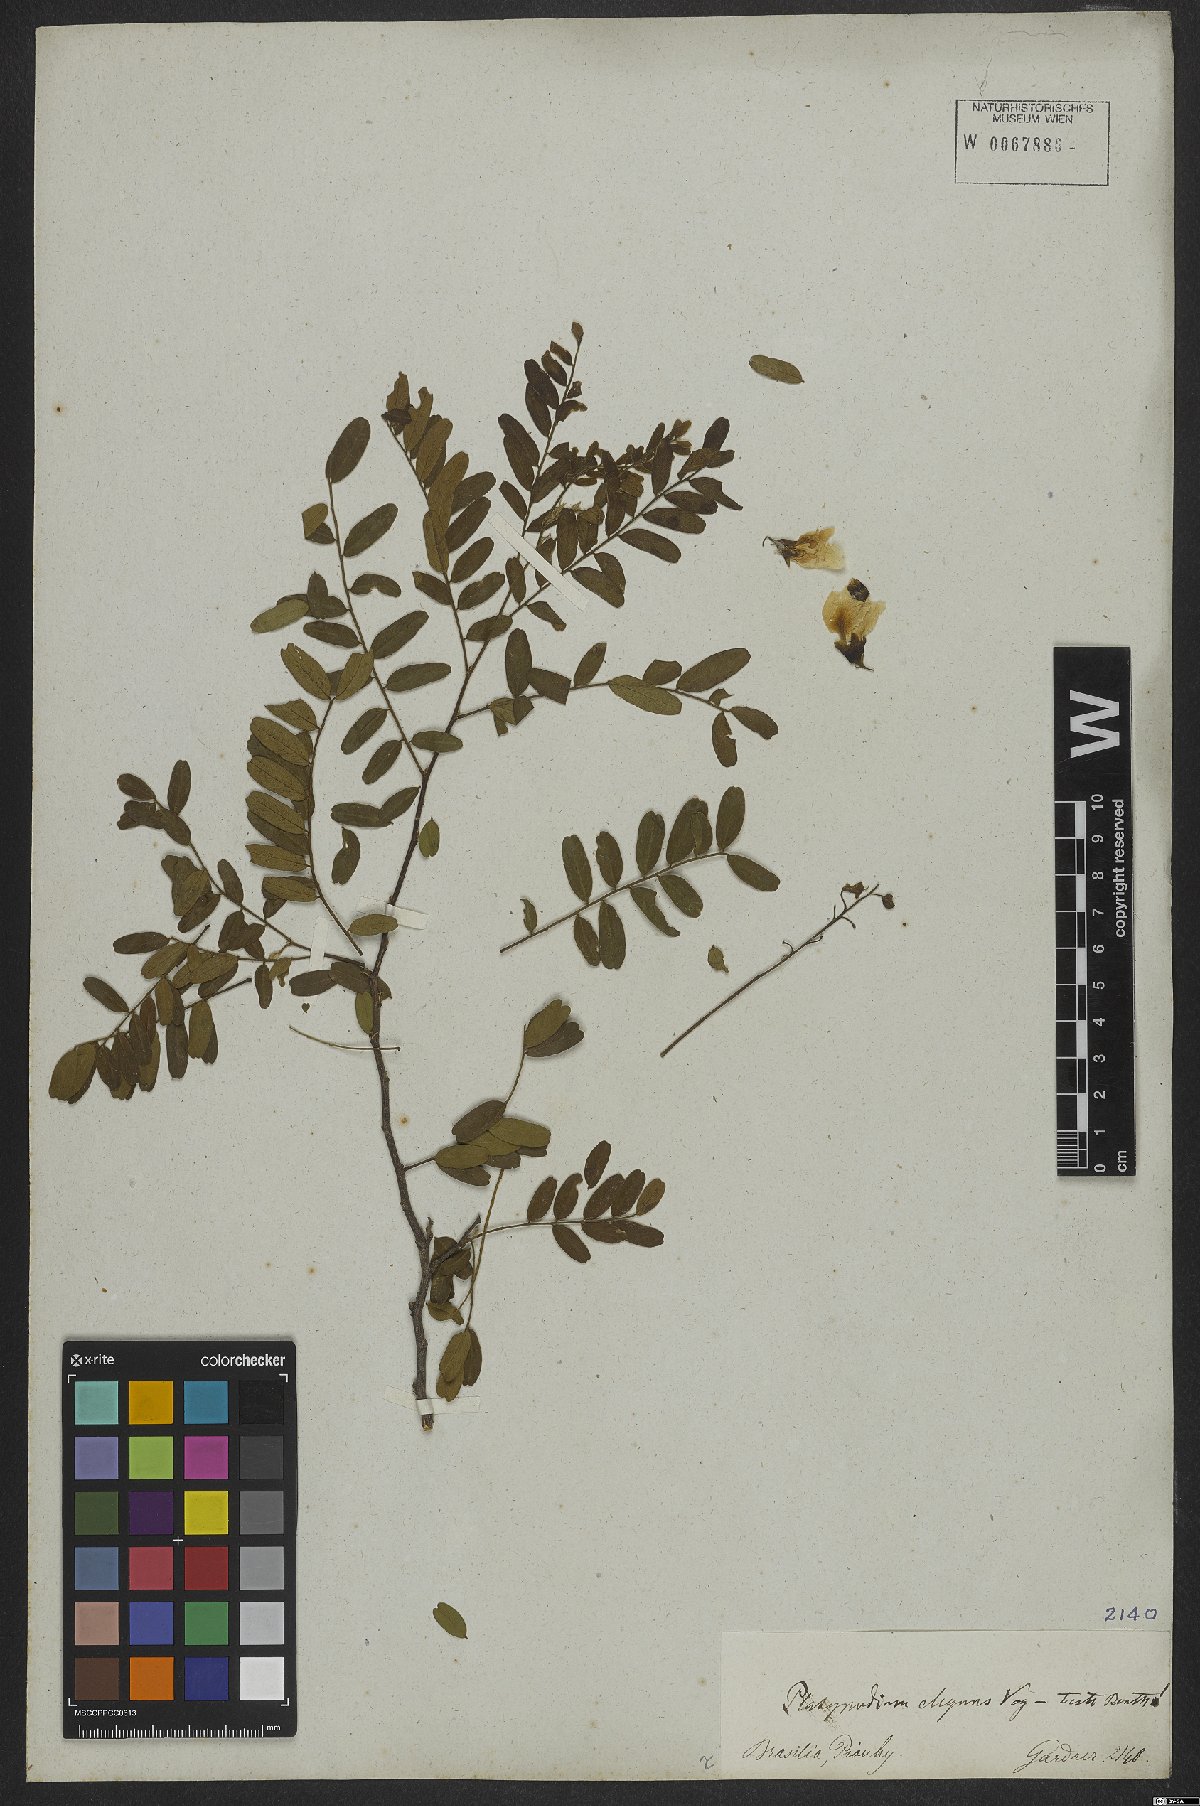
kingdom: Plantae
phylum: Tracheophyta
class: Magnoliopsida
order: Fabales
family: Fabaceae
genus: Platypodium
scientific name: Platypodium elegans
